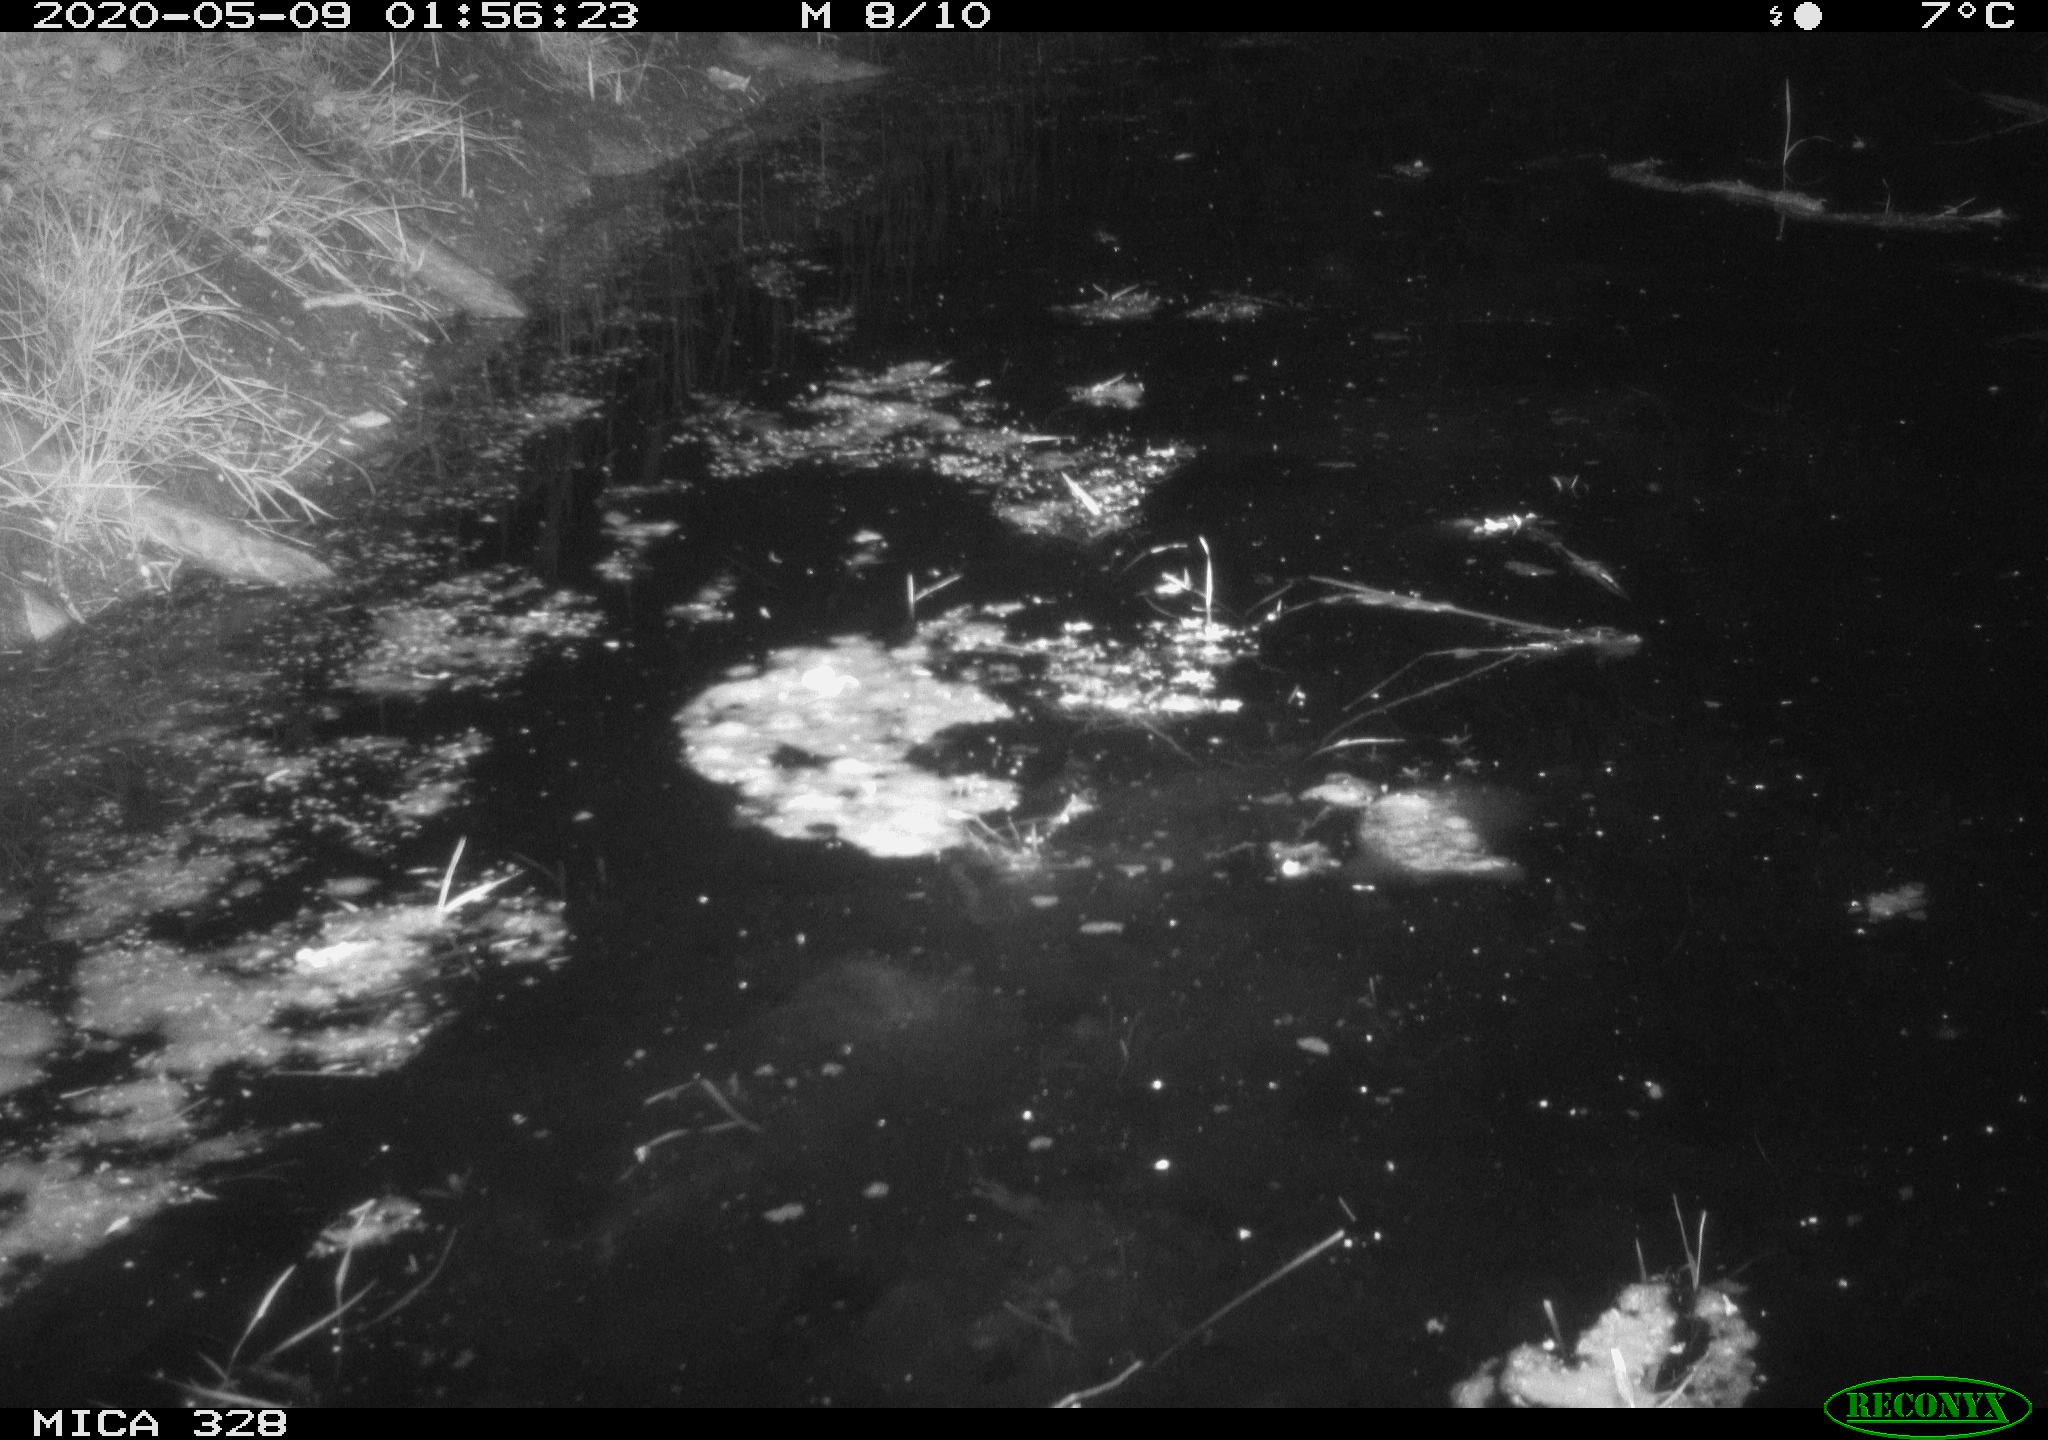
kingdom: Animalia
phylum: Chordata
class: Aves
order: Anseriformes
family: Anatidae
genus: Anas
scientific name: Anas platyrhynchos
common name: Mallard
